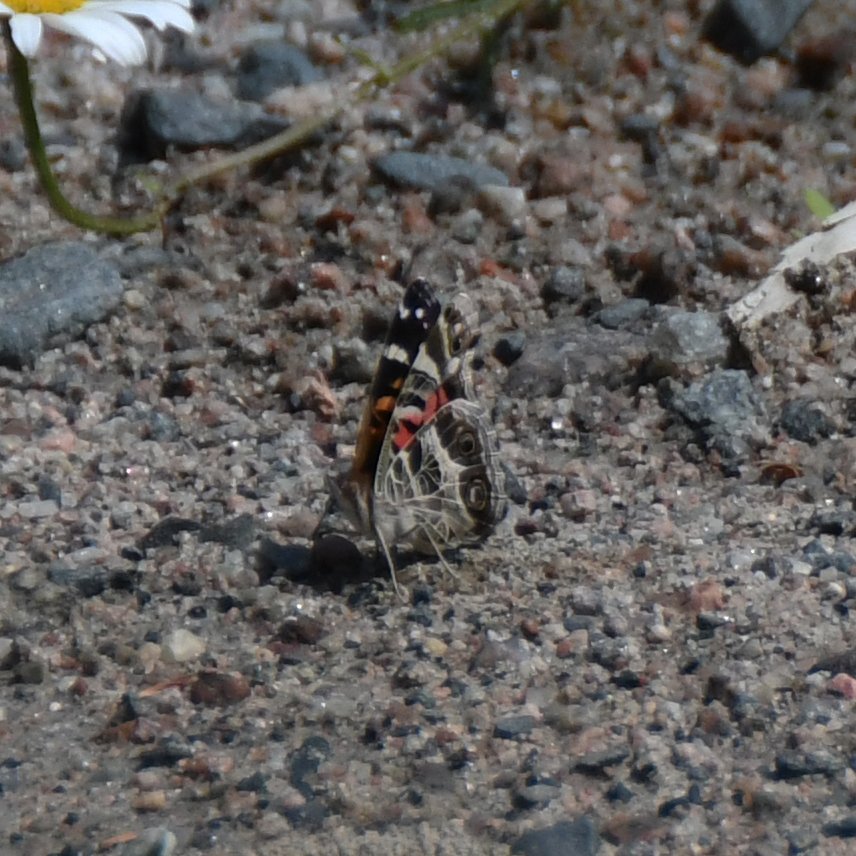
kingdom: Animalia
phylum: Arthropoda
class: Insecta
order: Lepidoptera
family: Nymphalidae
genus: Vanessa
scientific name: Vanessa virginiensis
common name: American Lady
